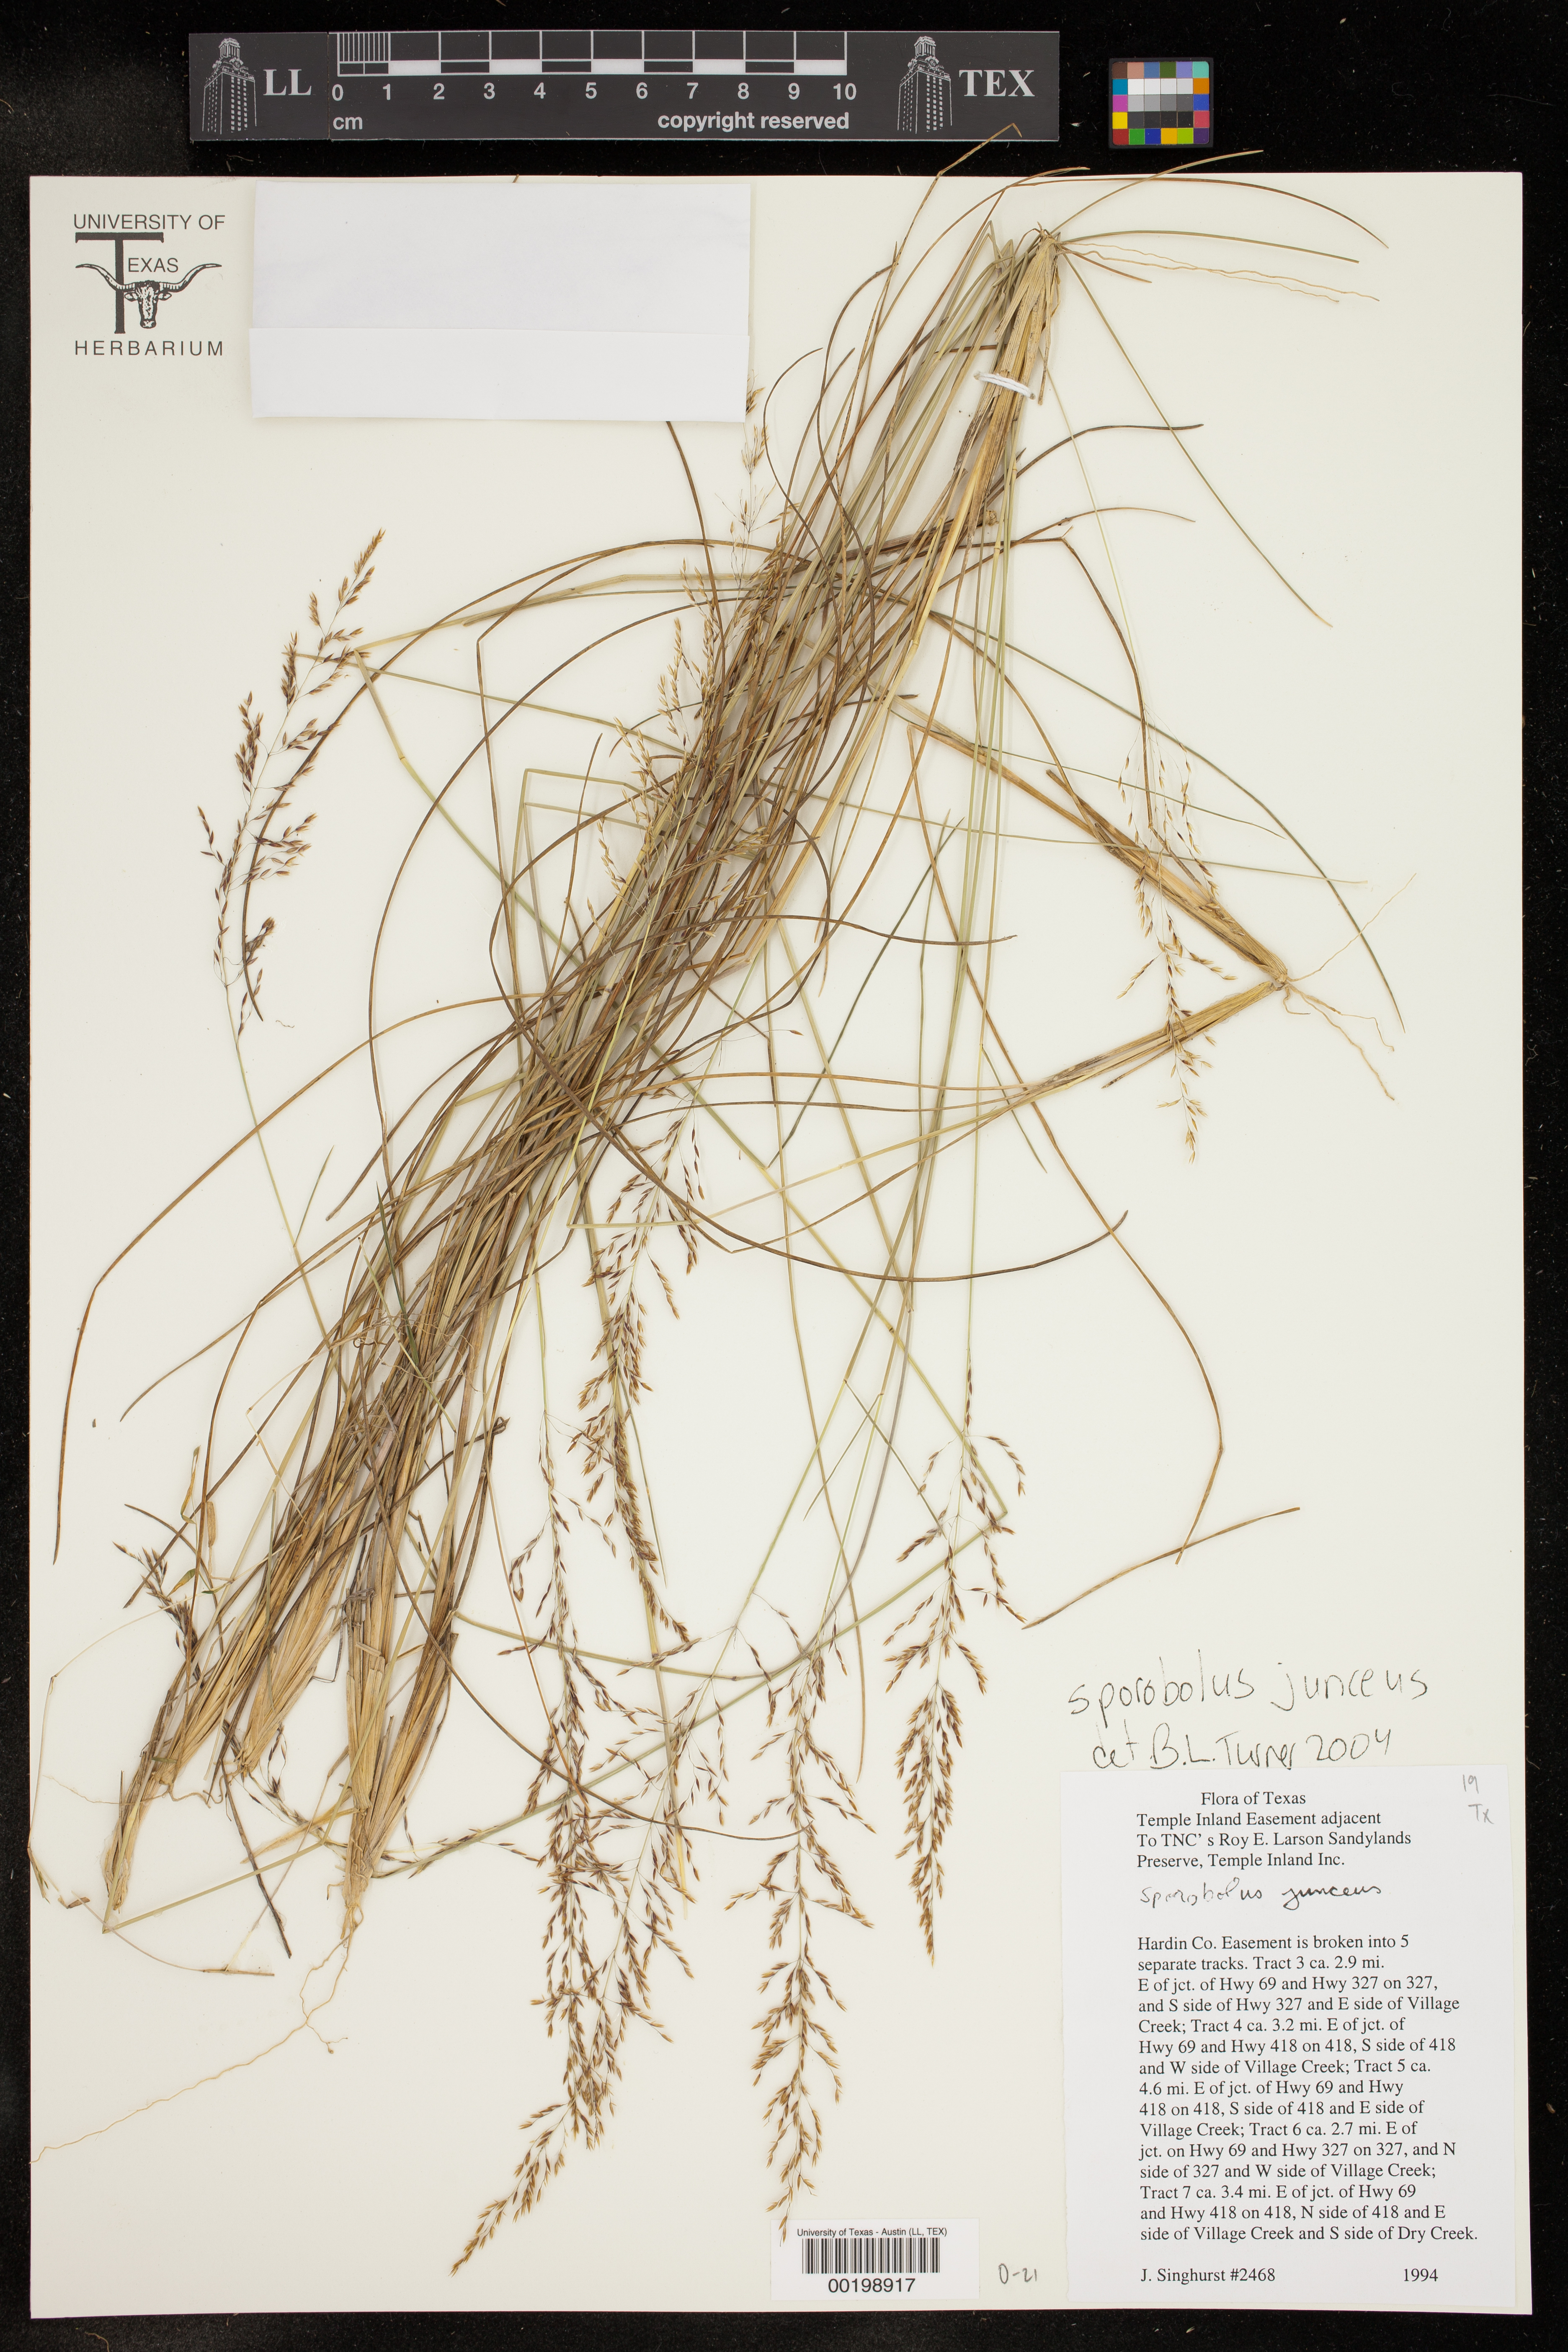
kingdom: Plantae
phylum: Tracheophyta
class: Liliopsida
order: Poales
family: Poaceae
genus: Sporobolus
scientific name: Sporobolus junceus
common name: Lizard grass
